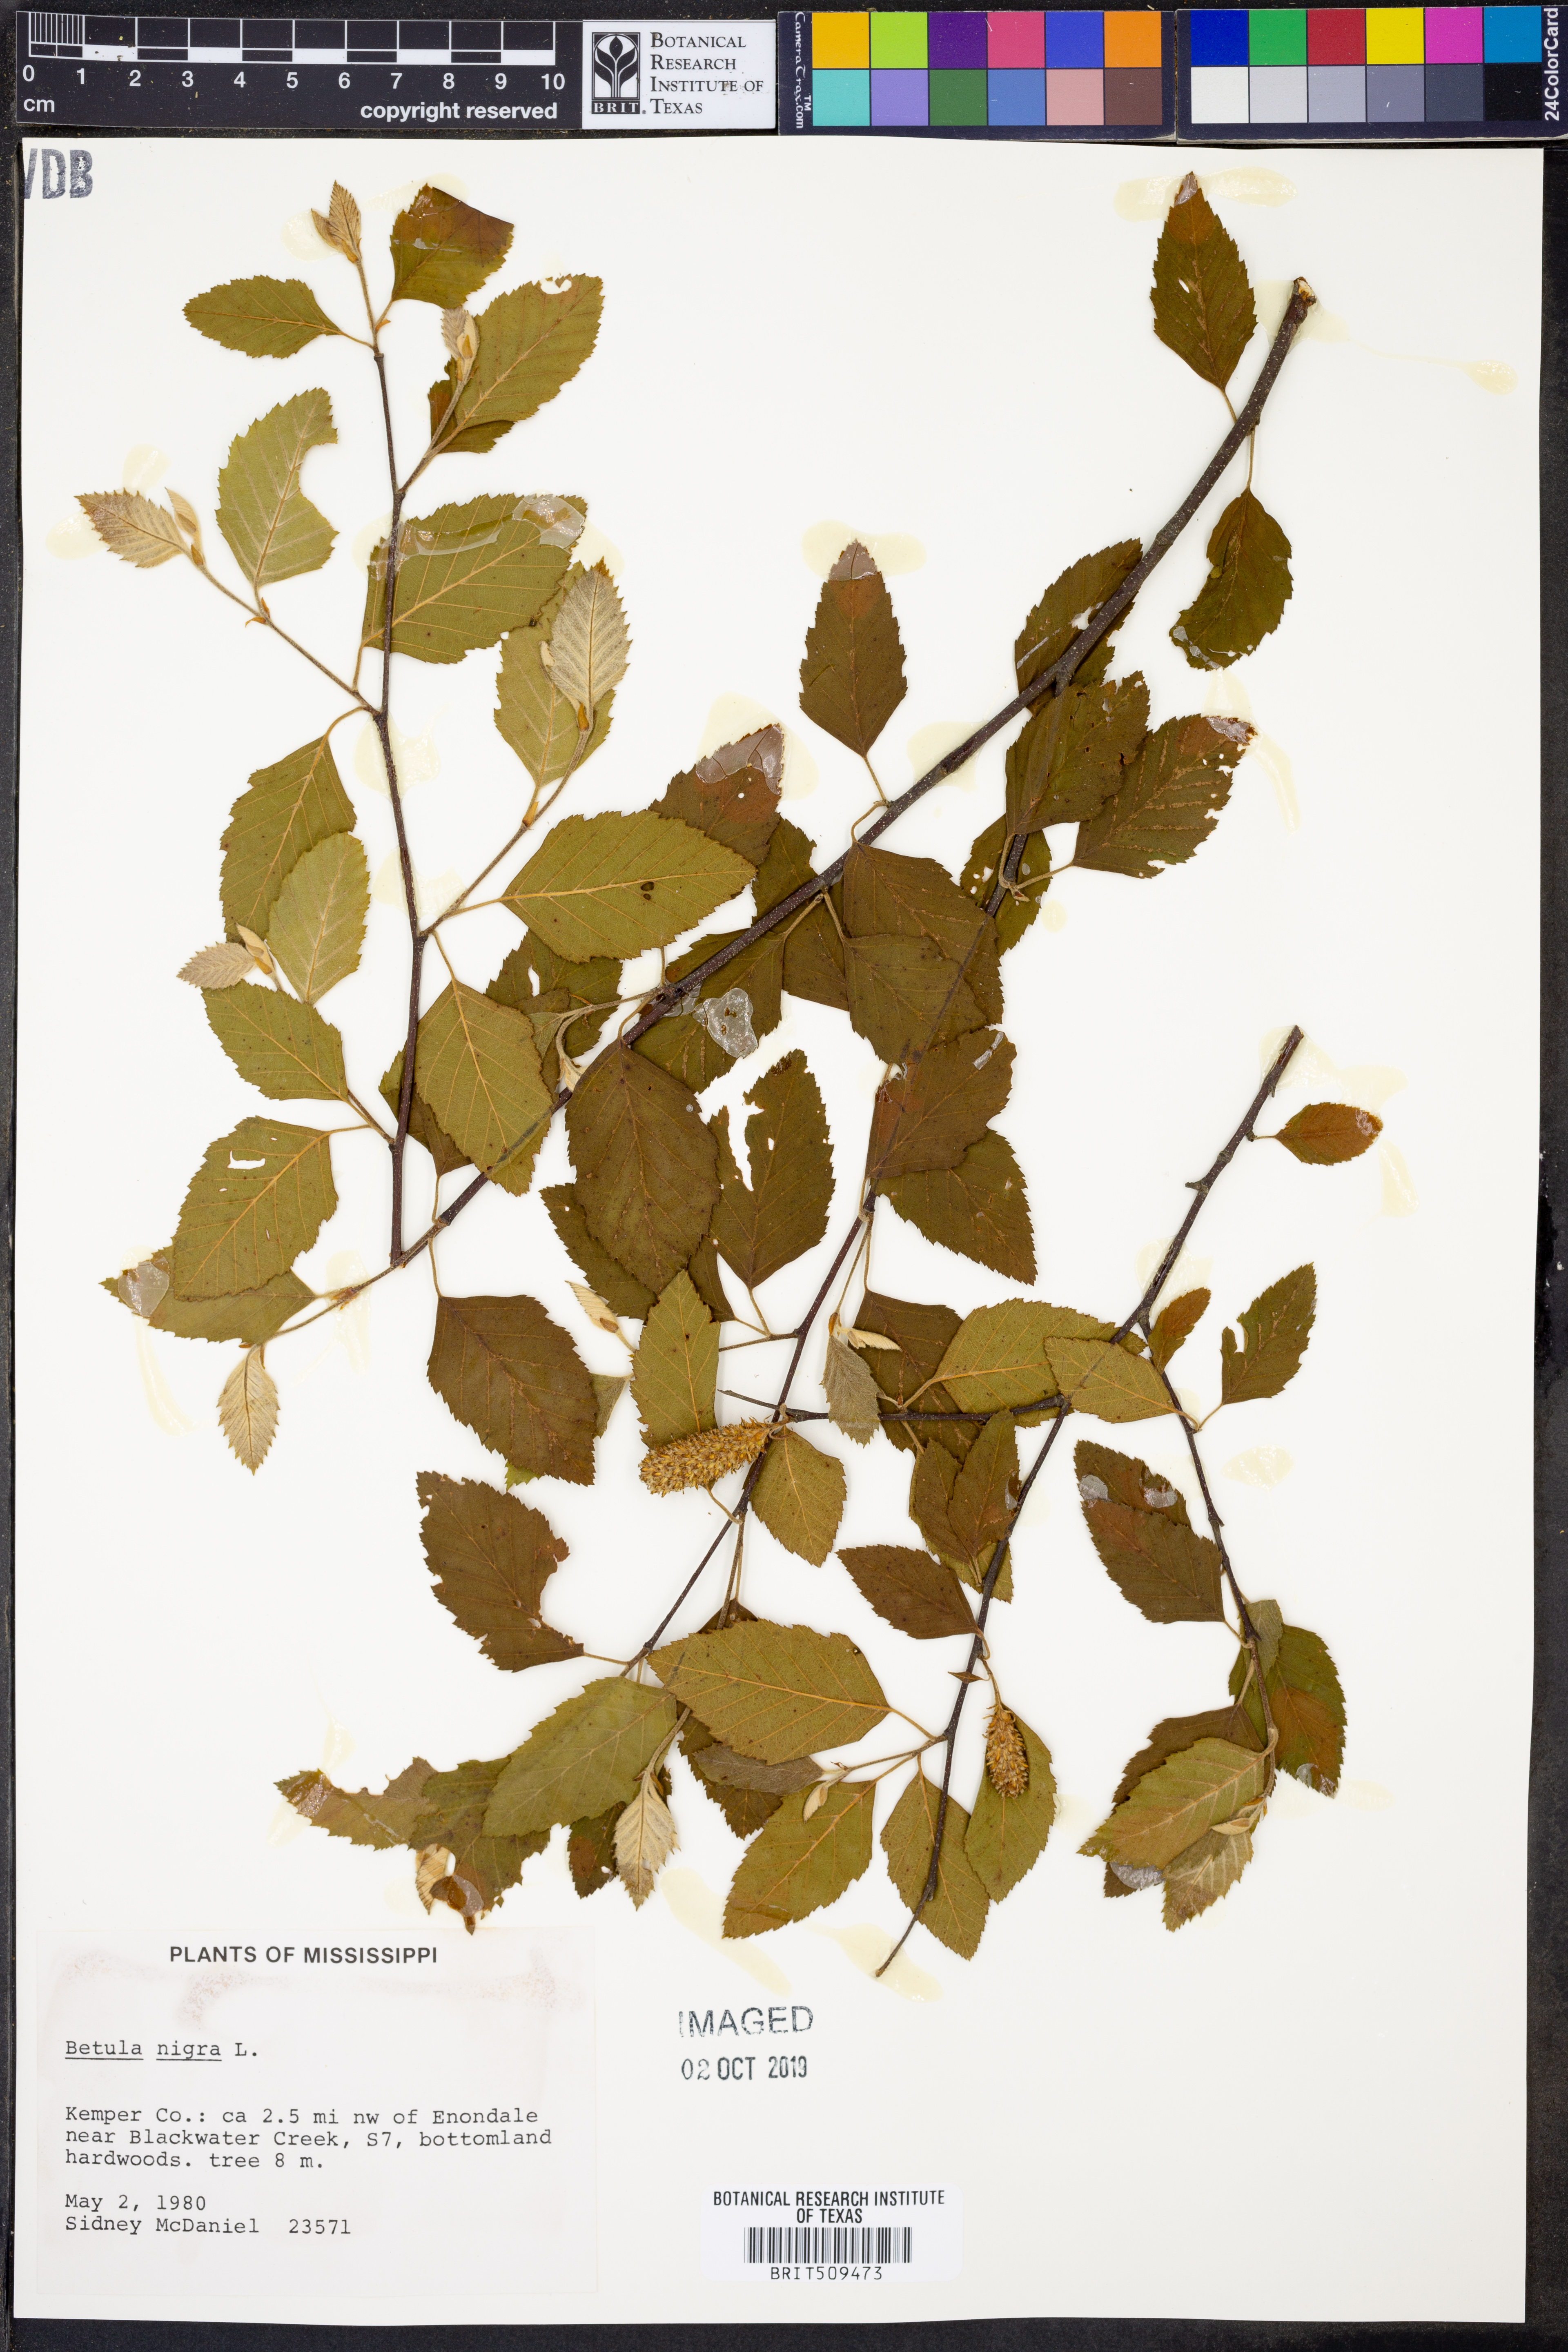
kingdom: Plantae
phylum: Tracheophyta
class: Magnoliopsida
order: Fagales
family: Betulaceae
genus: Betula
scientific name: Betula nigra
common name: Black birch
